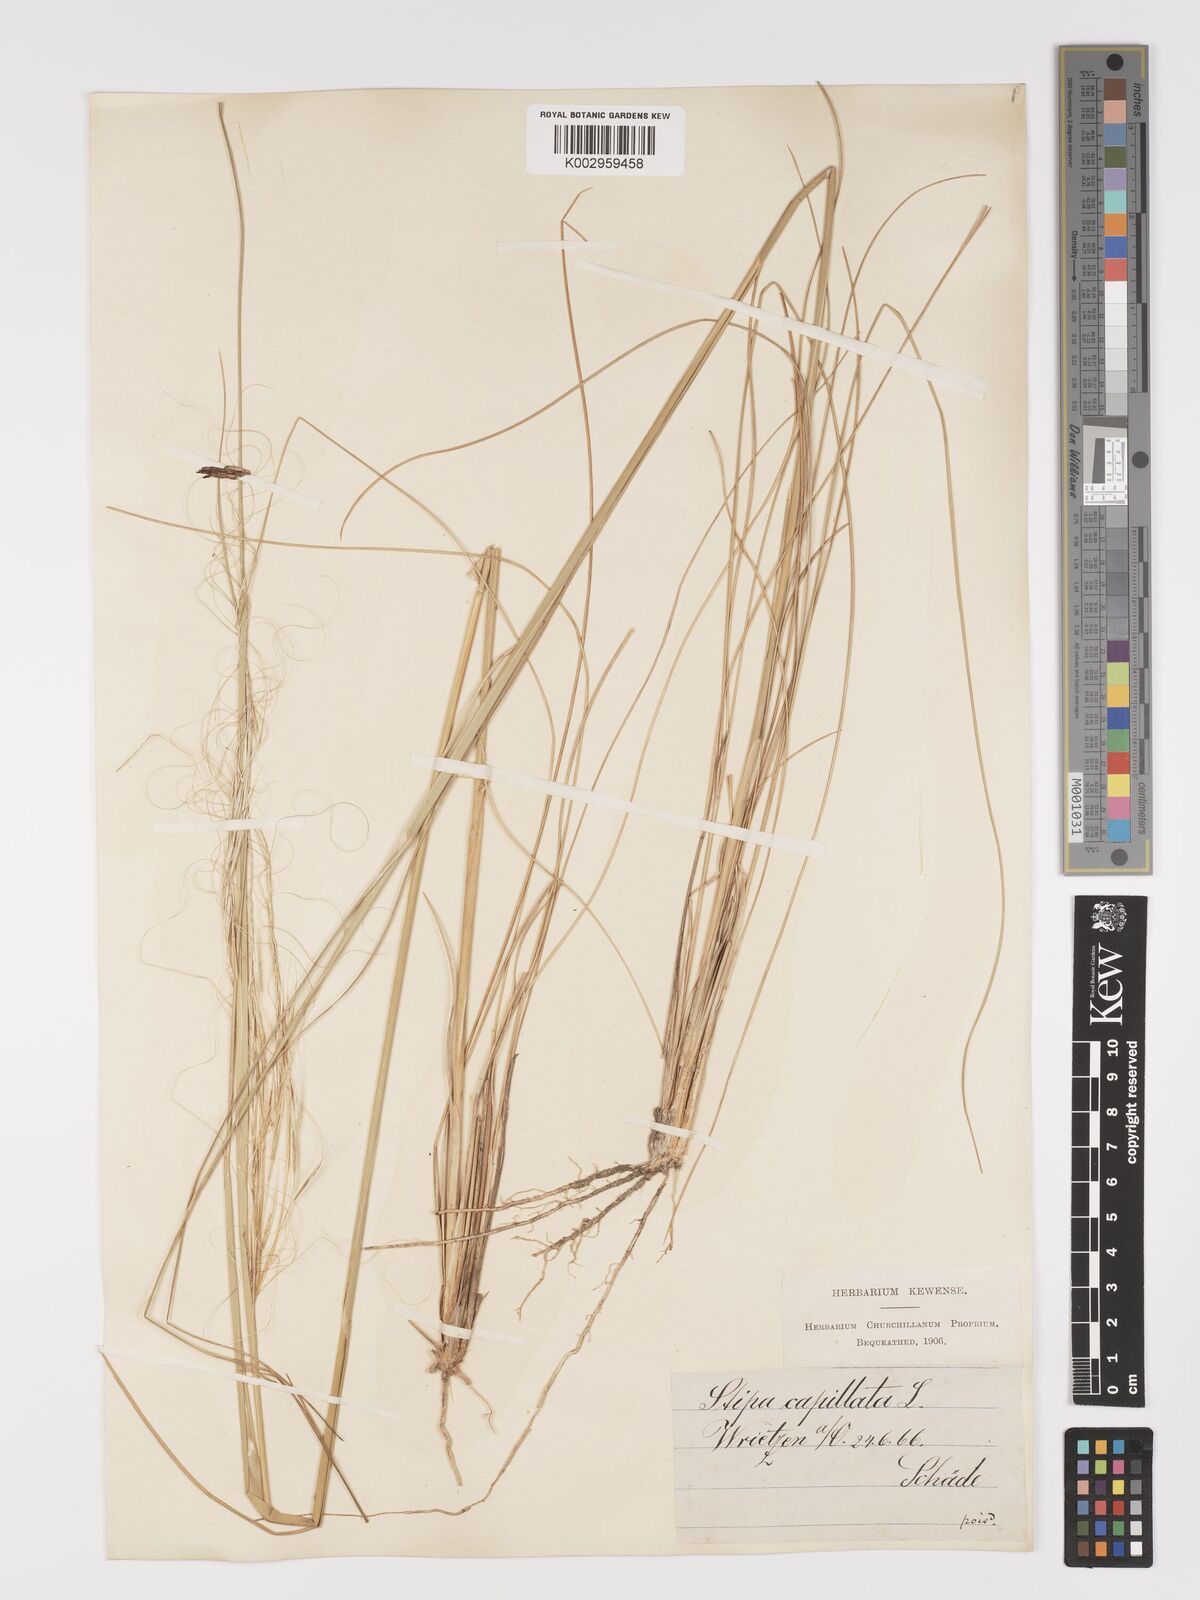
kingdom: Plantae
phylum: Tracheophyta
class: Liliopsida
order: Poales
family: Poaceae
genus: Stipa
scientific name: Stipa capillata
